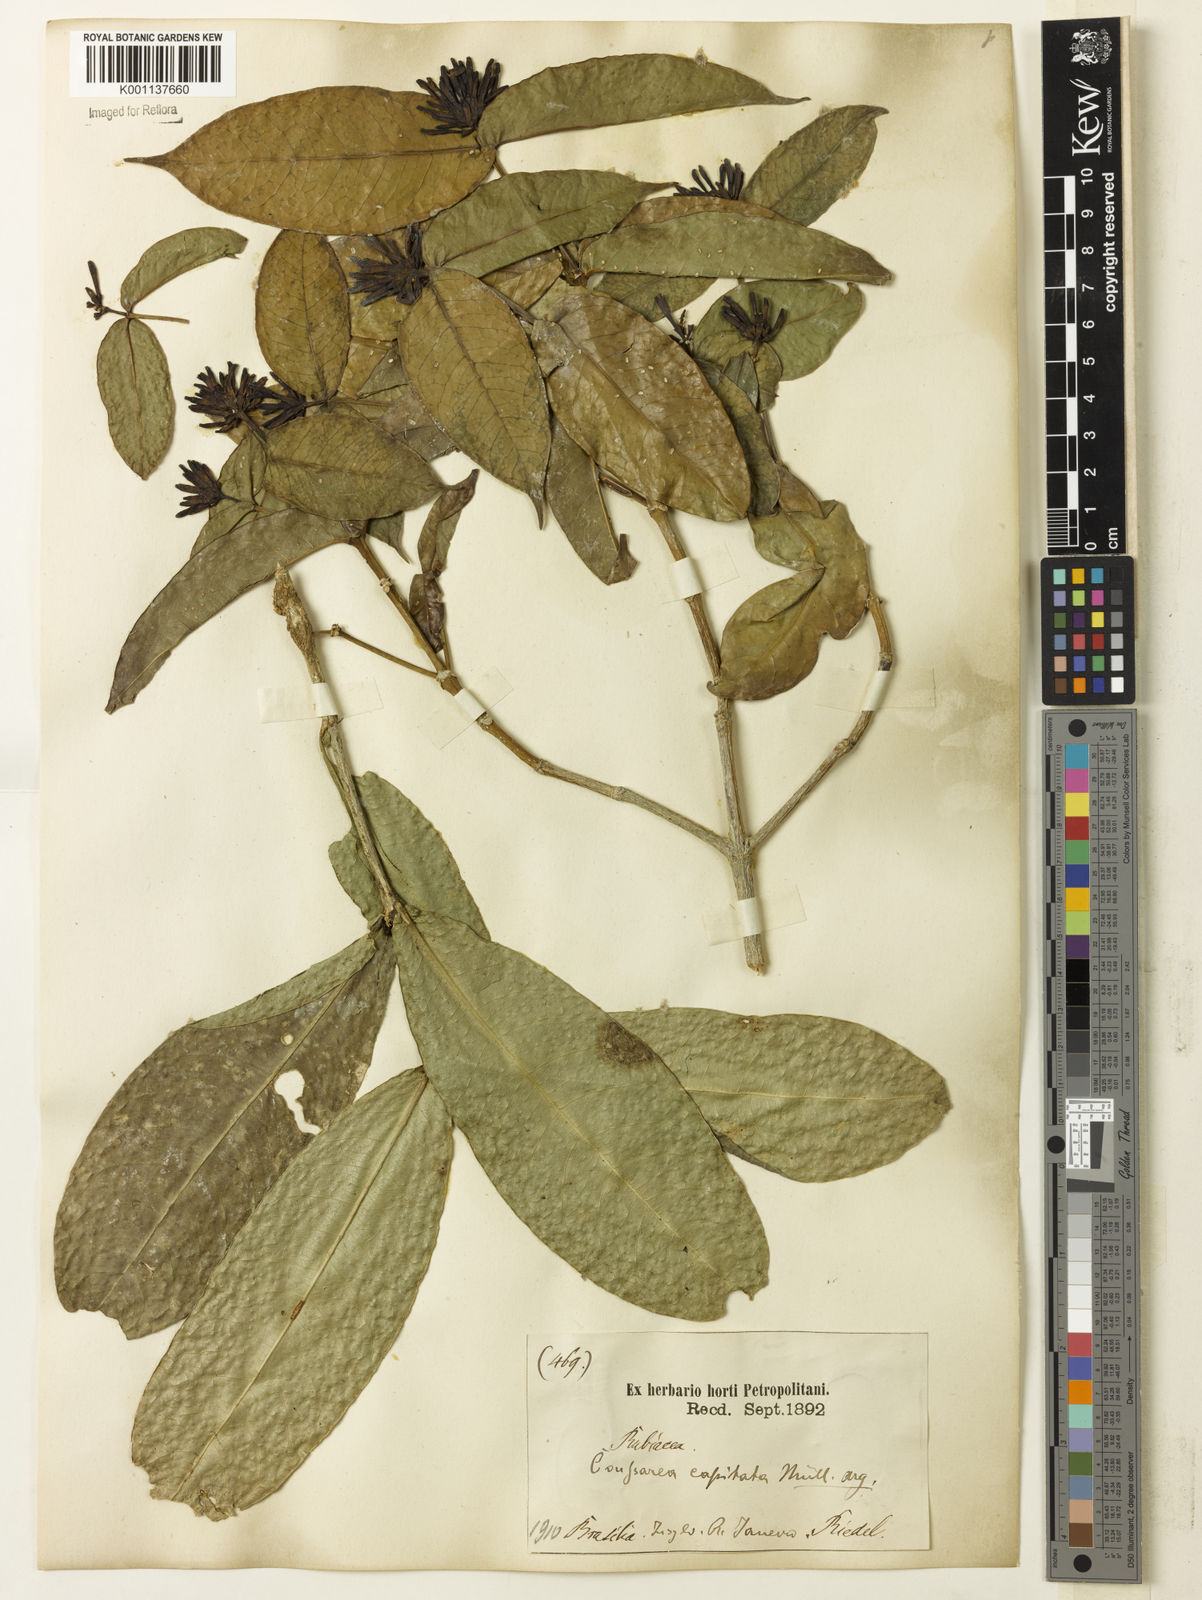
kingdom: Plantae
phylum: Tracheophyta
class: Magnoliopsida
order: Gentianales
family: Rubiaceae
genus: Coussarea
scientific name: Coussarea
